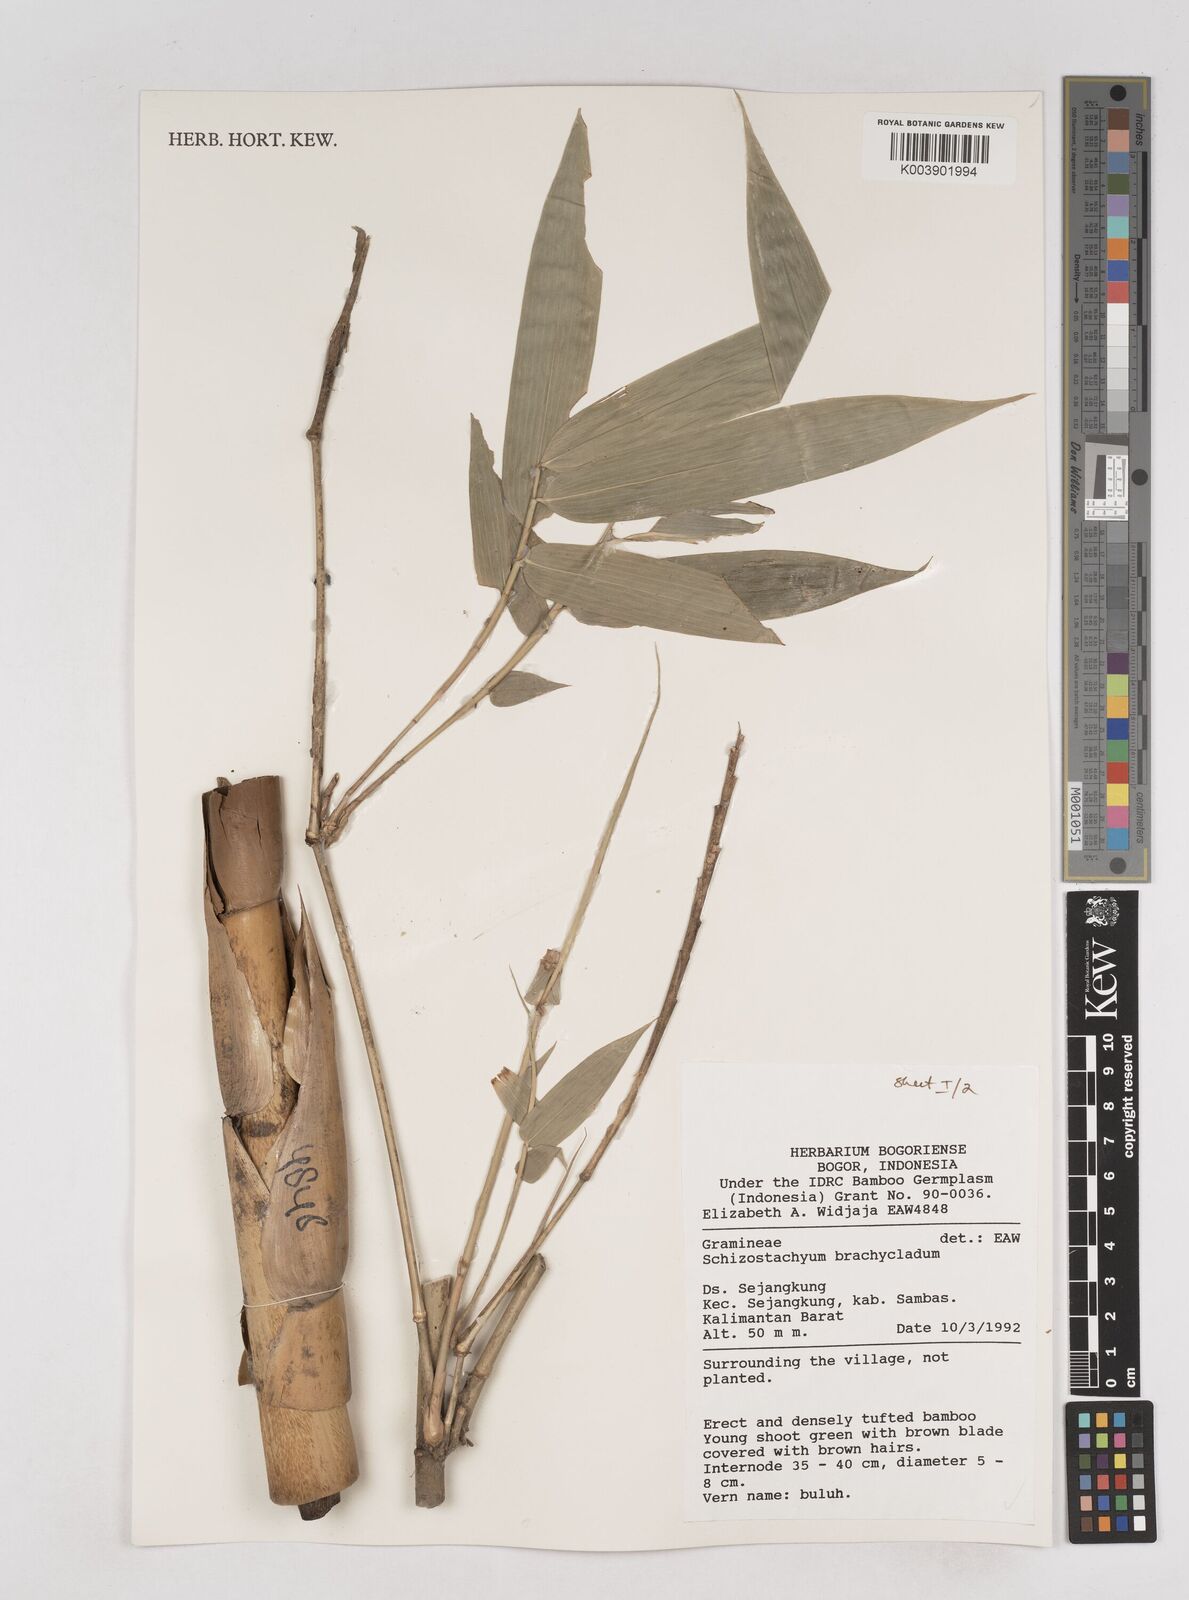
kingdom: Plantae
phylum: Tracheophyta
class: Liliopsida
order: Poales
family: Poaceae
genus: Schizostachyum
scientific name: Schizostachyum brachycladum
